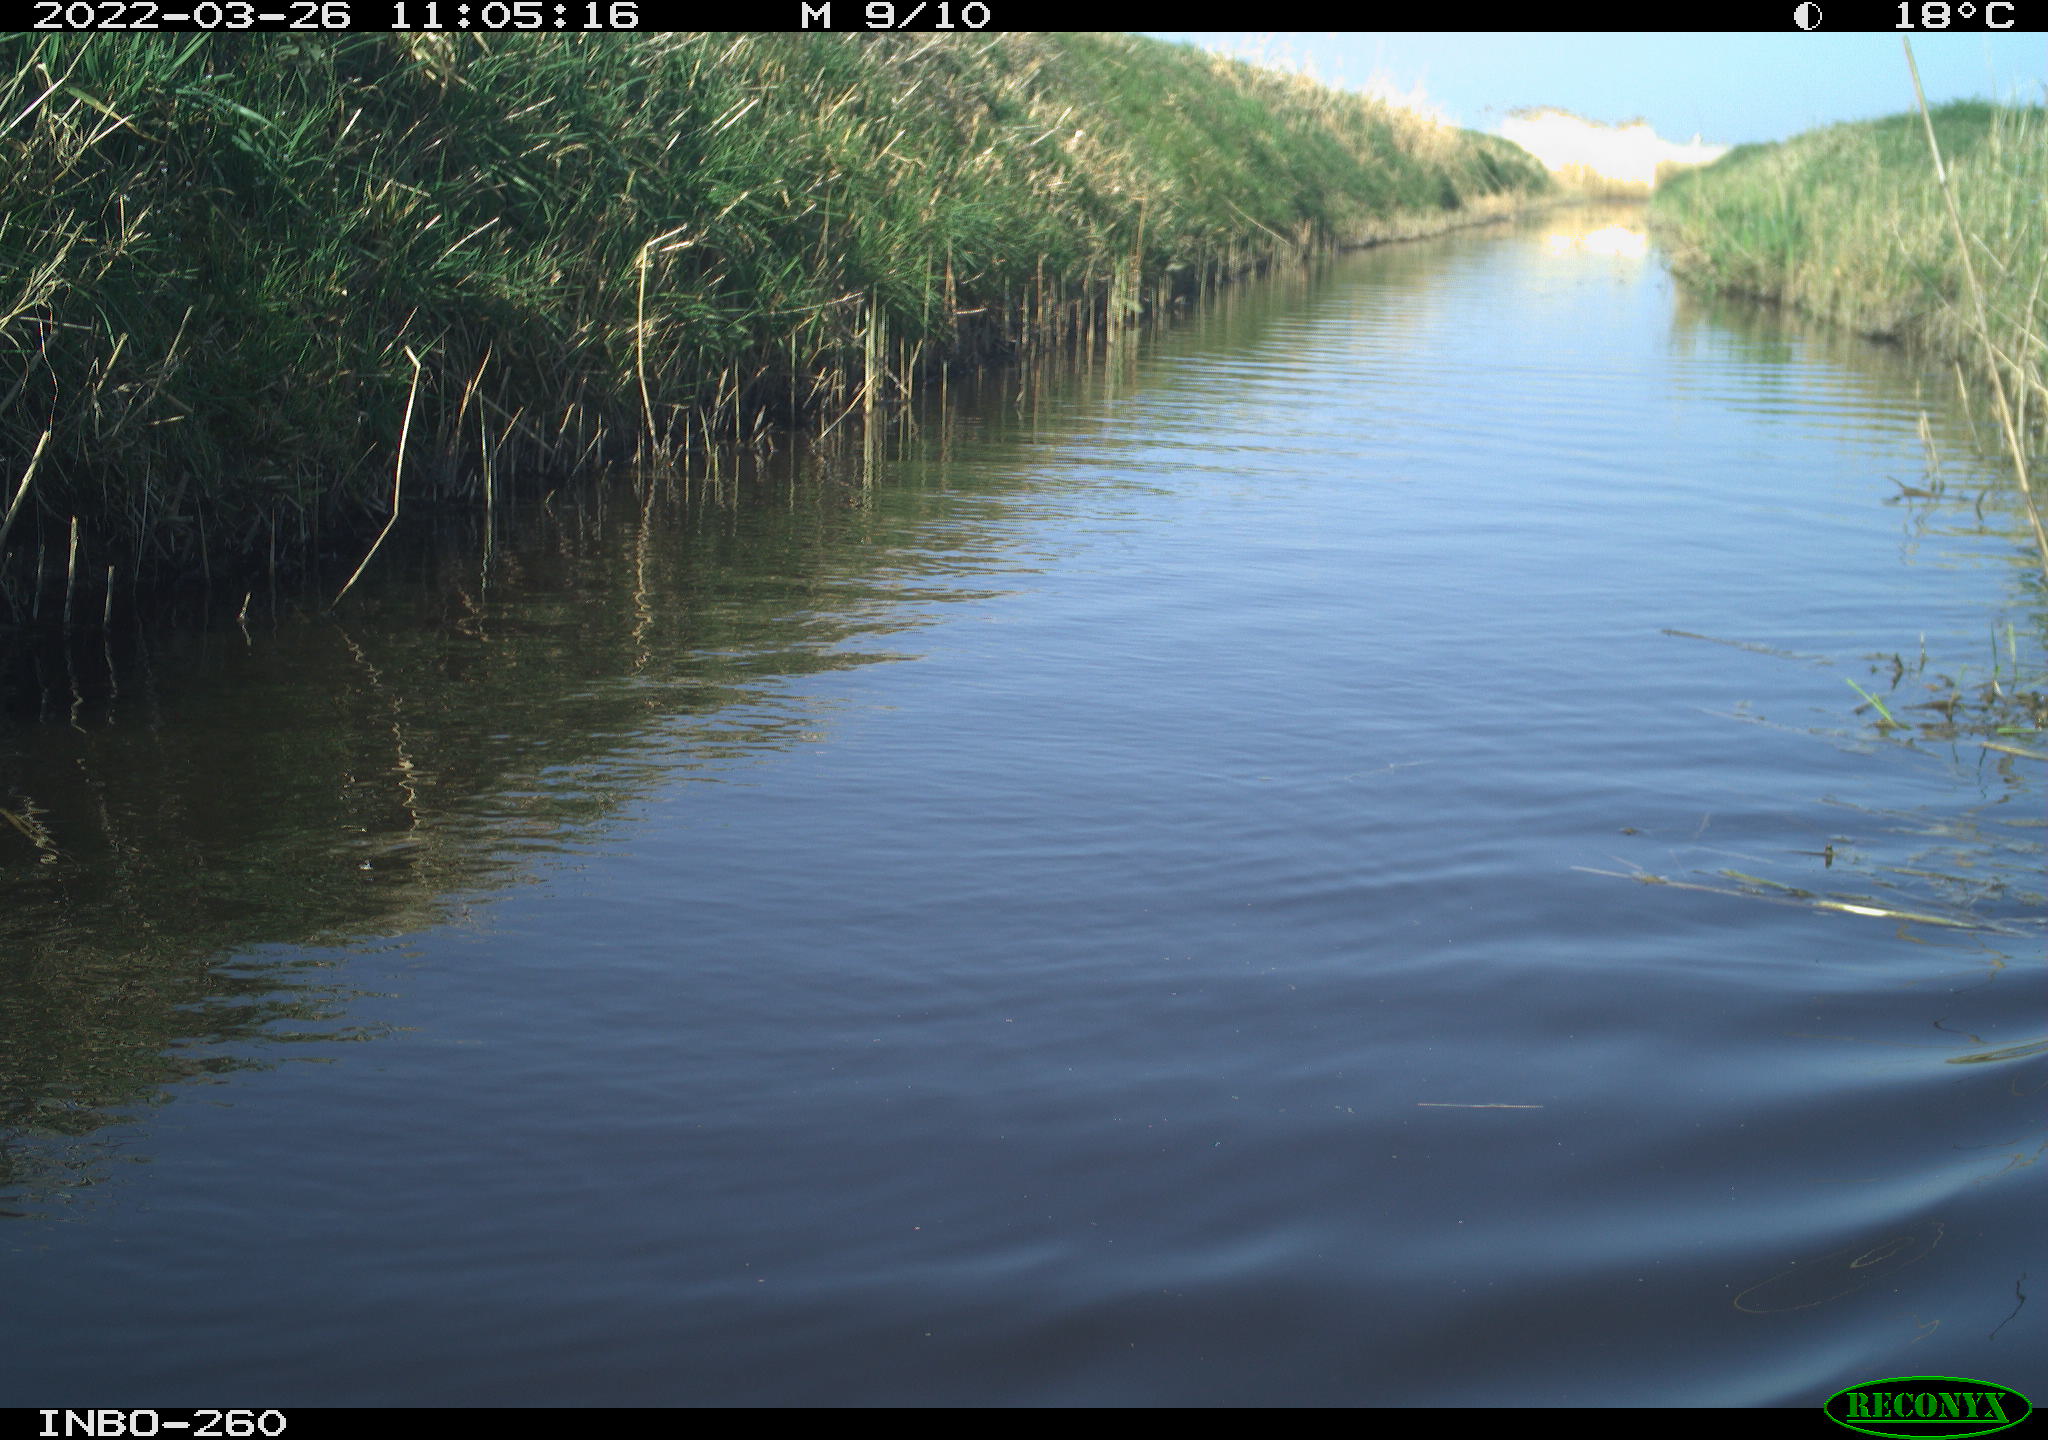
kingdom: Animalia
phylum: Chordata
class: Aves
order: Gruiformes
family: Rallidae
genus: Fulica
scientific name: Fulica atra
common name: Eurasian coot
